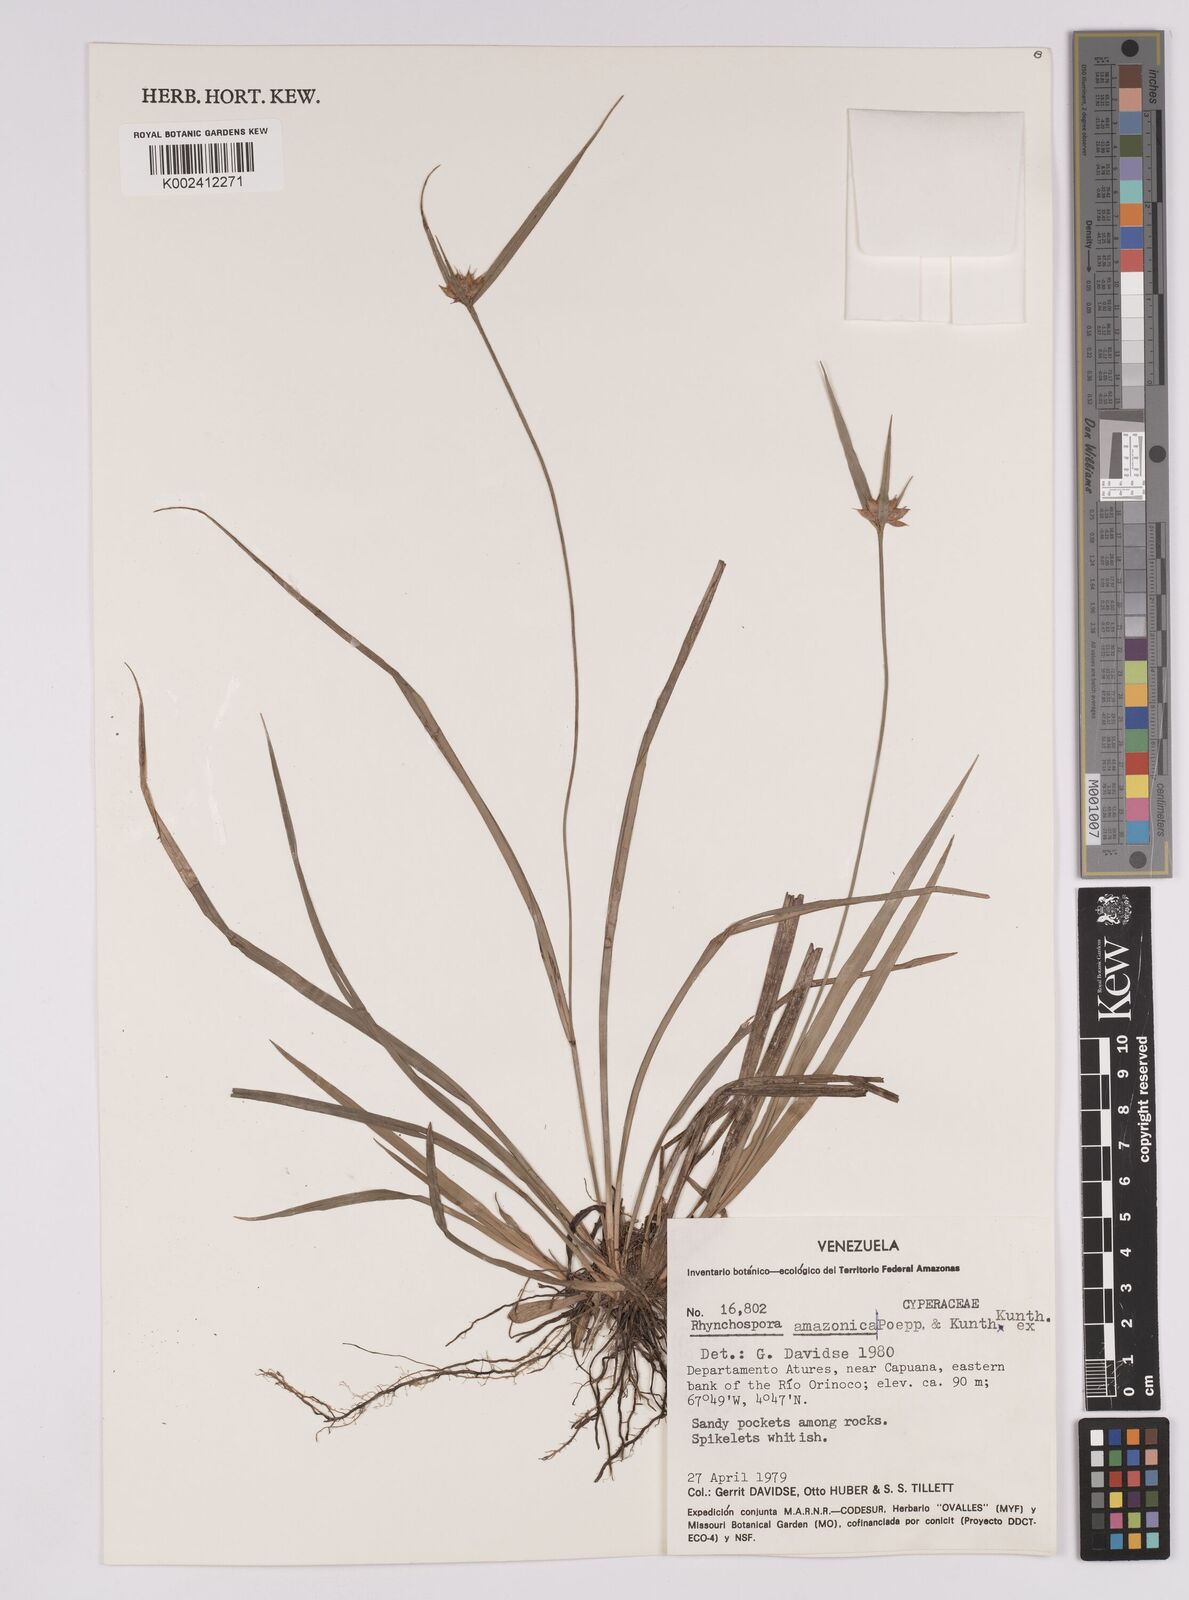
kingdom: Plantae
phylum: Tracheophyta
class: Liliopsida
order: Poales
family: Cyperaceae
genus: Rhynchospora
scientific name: Rhynchospora amazonica
